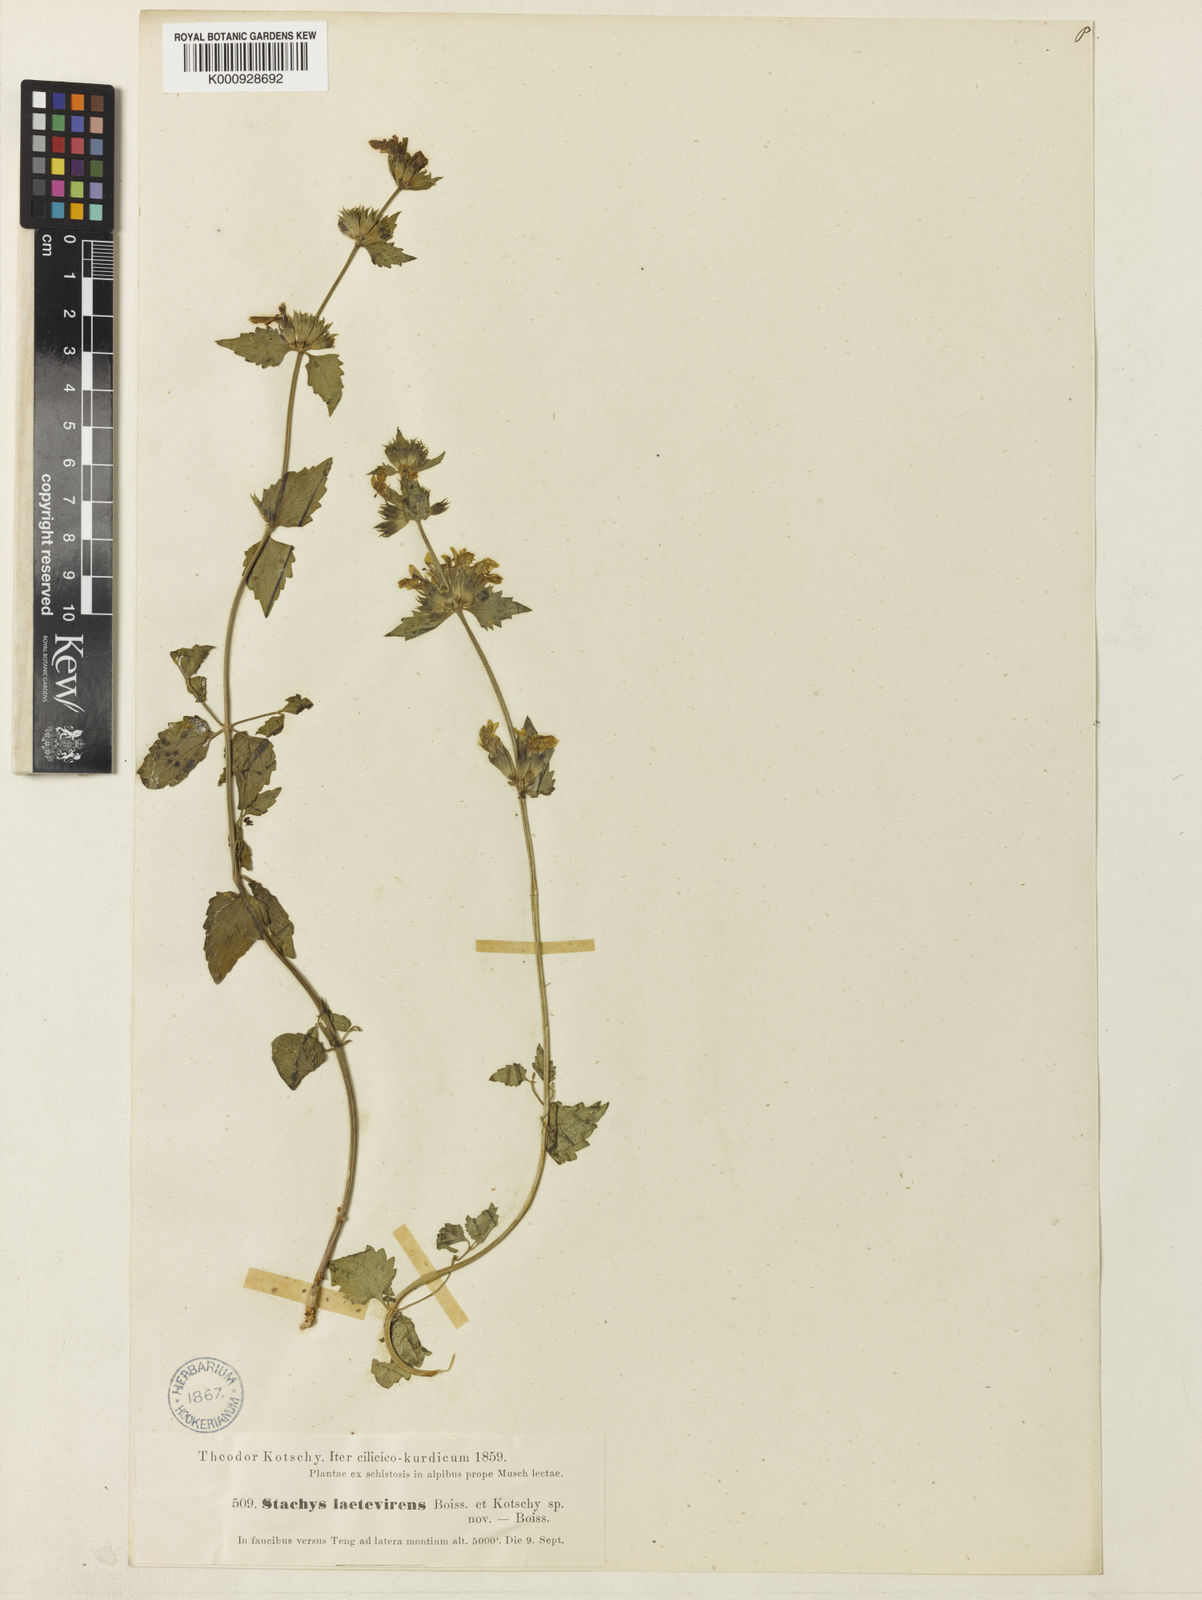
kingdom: Plantae
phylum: Tracheophyta
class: Magnoliopsida
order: Lamiales
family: Lamiaceae
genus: Stachys
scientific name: Stachys viscosa
